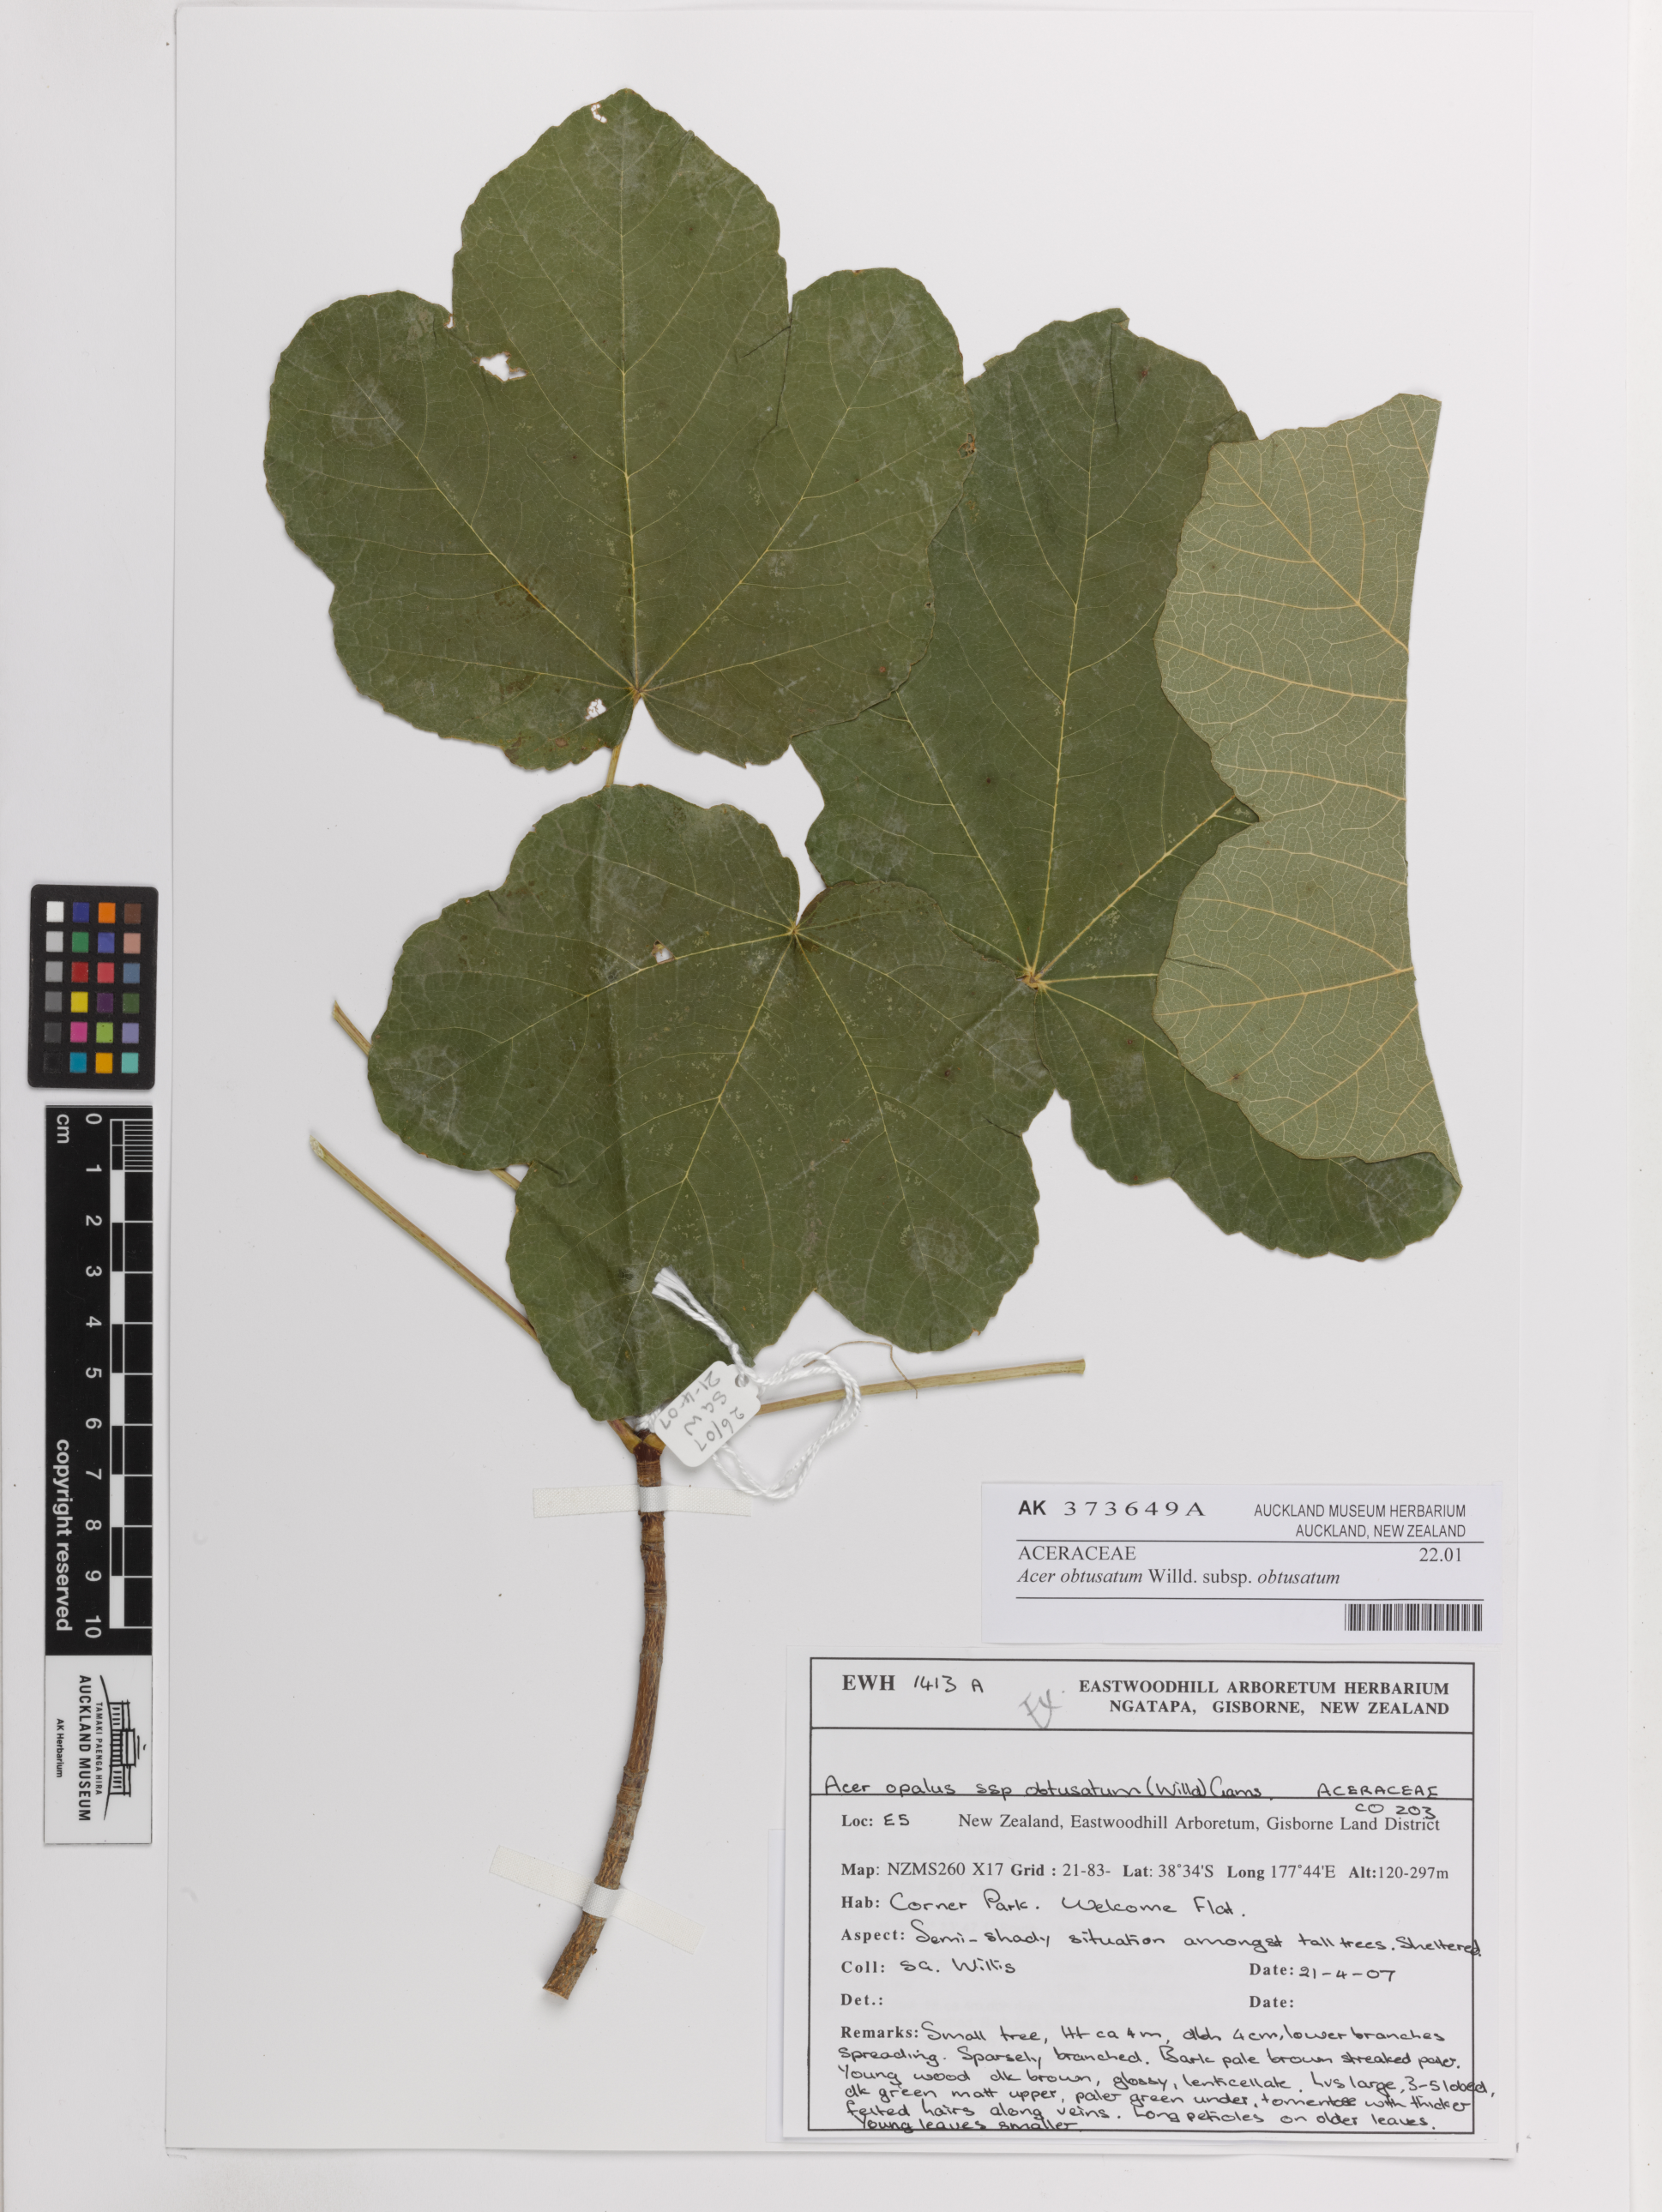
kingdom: Plantae
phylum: Tracheophyta
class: Magnoliopsida
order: Sapindales
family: Sapindaceae
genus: Acer
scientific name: Acer obtusatum
